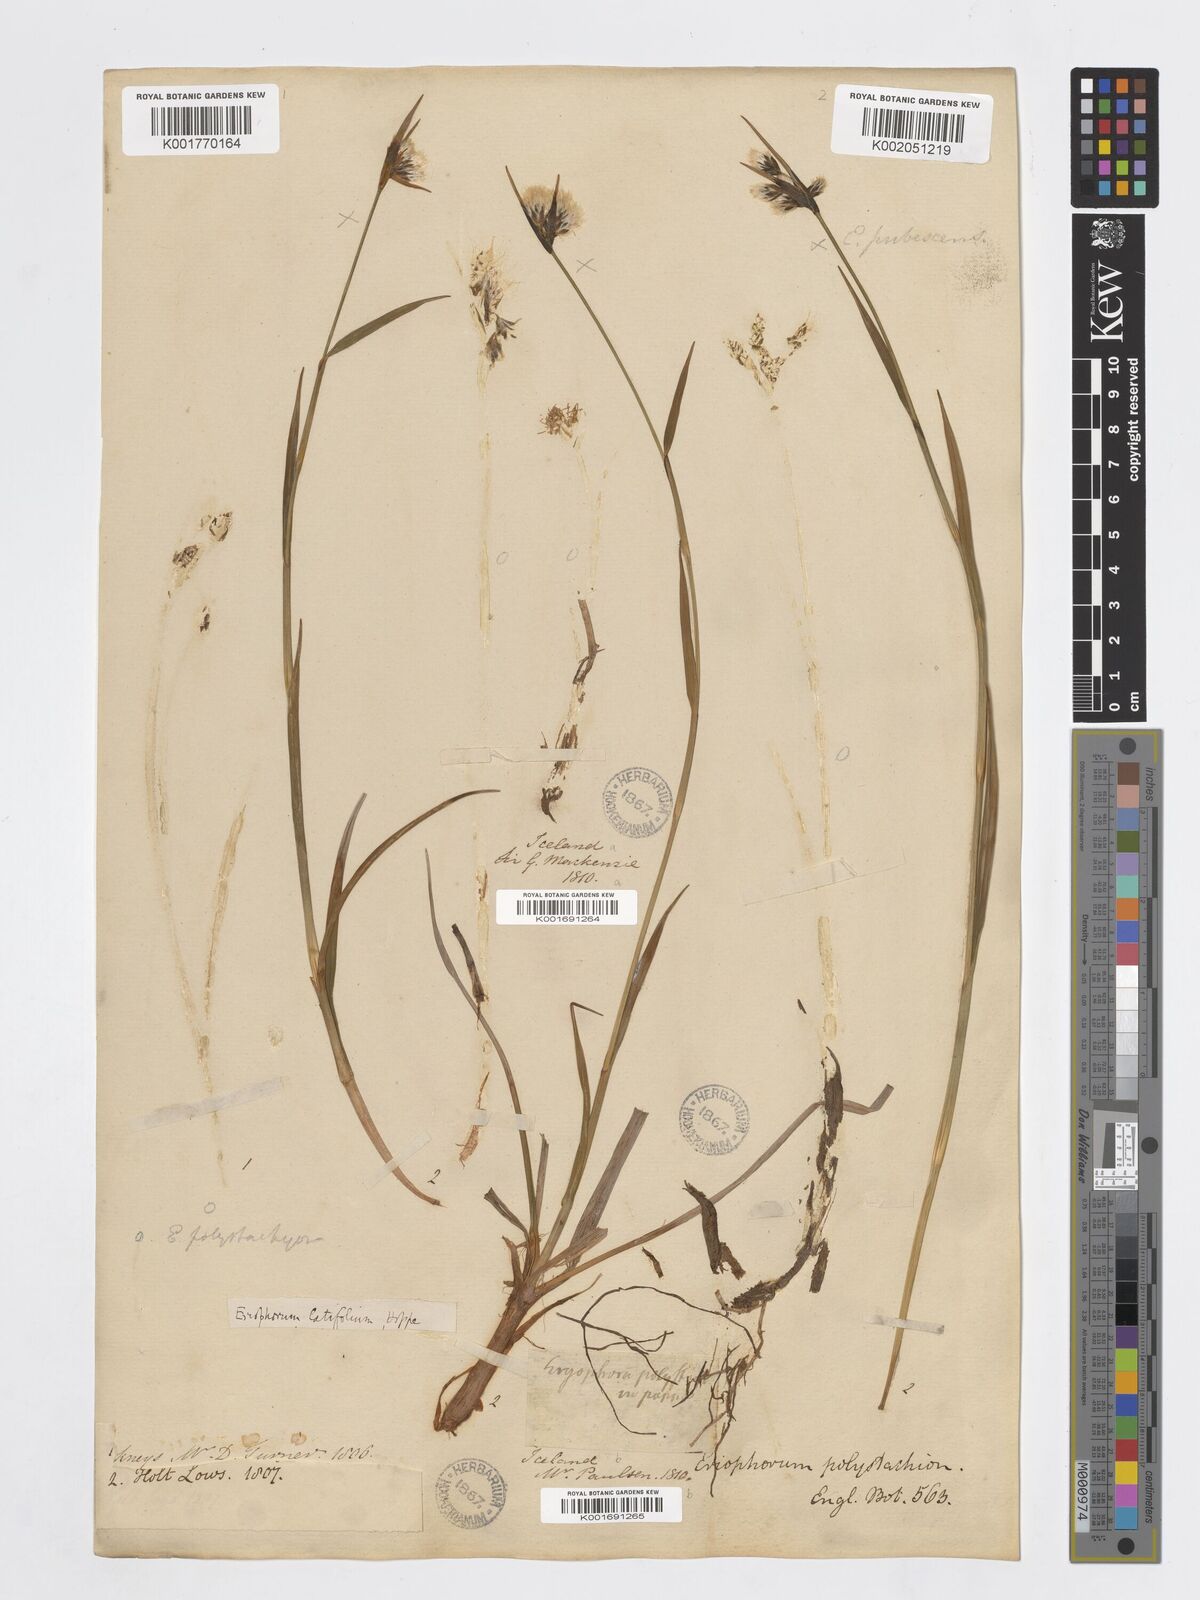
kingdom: Plantae
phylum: Tracheophyta
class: Liliopsida
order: Poales
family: Cyperaceae
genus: Eriophorum
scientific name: Eriophorum angustifolium
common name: Common cottongrass
